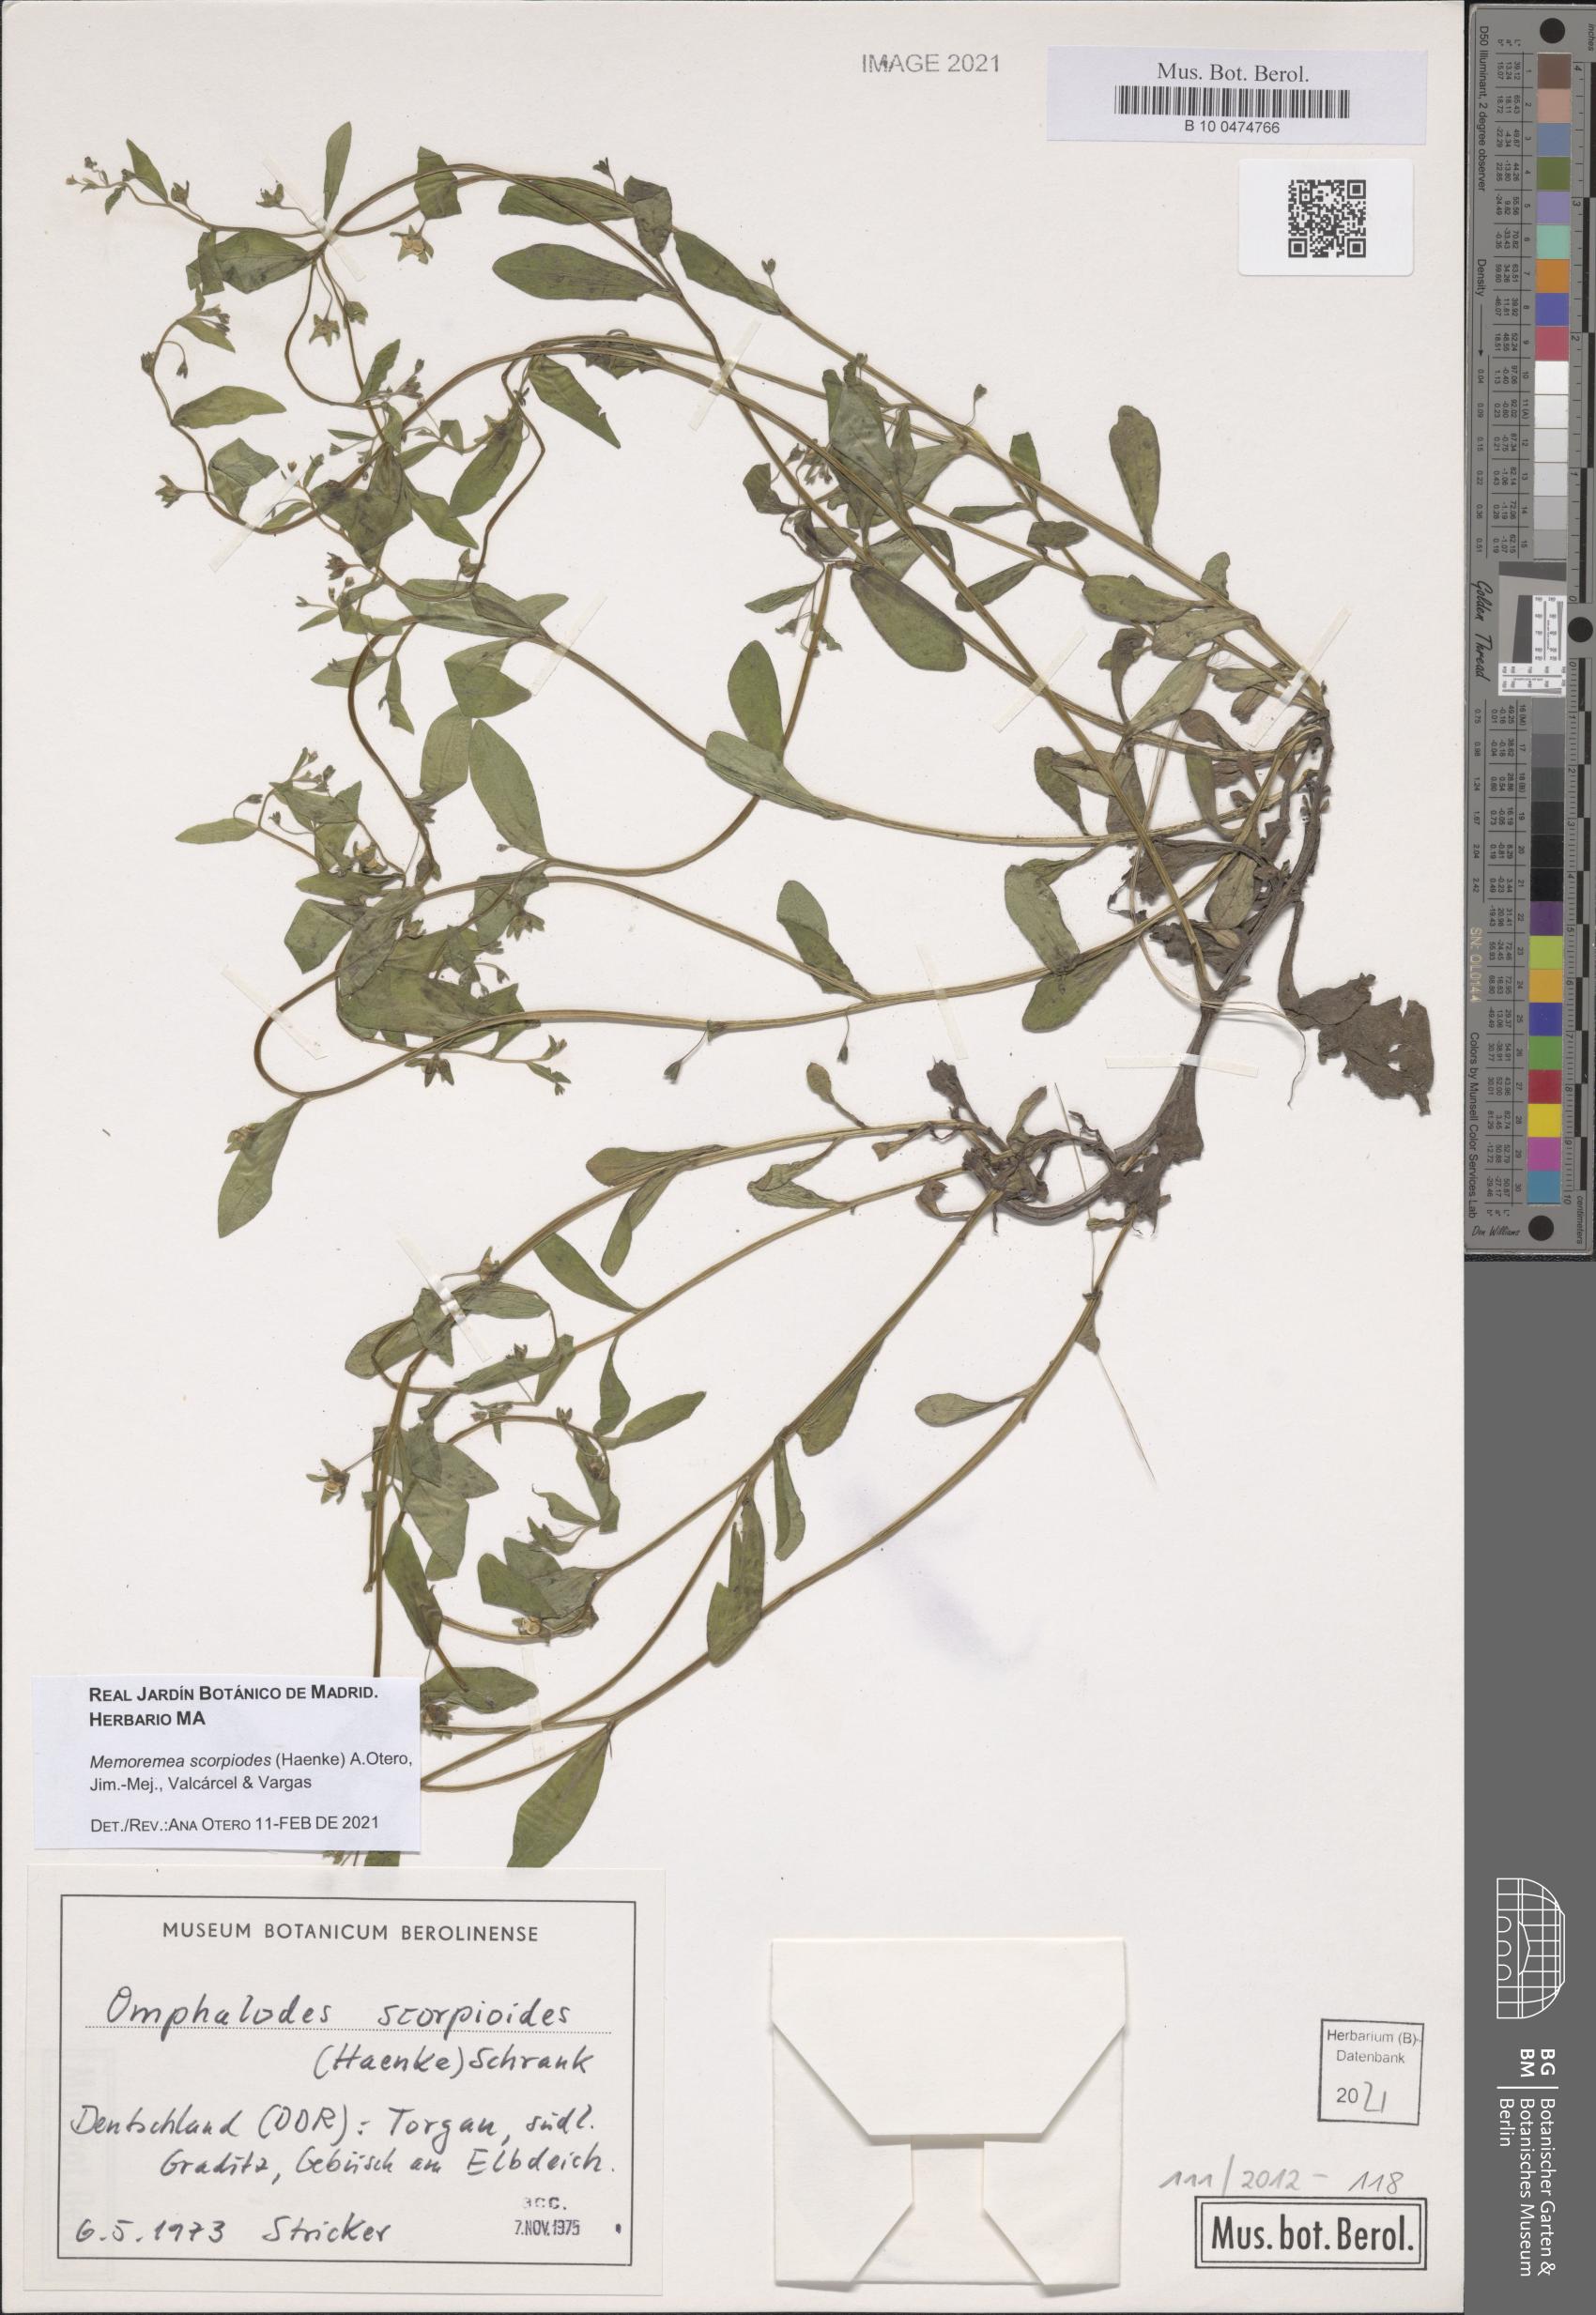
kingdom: Plantae
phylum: Tracheophyta
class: Magnoliopsida
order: Boraginales
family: Boraginaceae
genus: Memoremea
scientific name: Memoremea scorpioides
